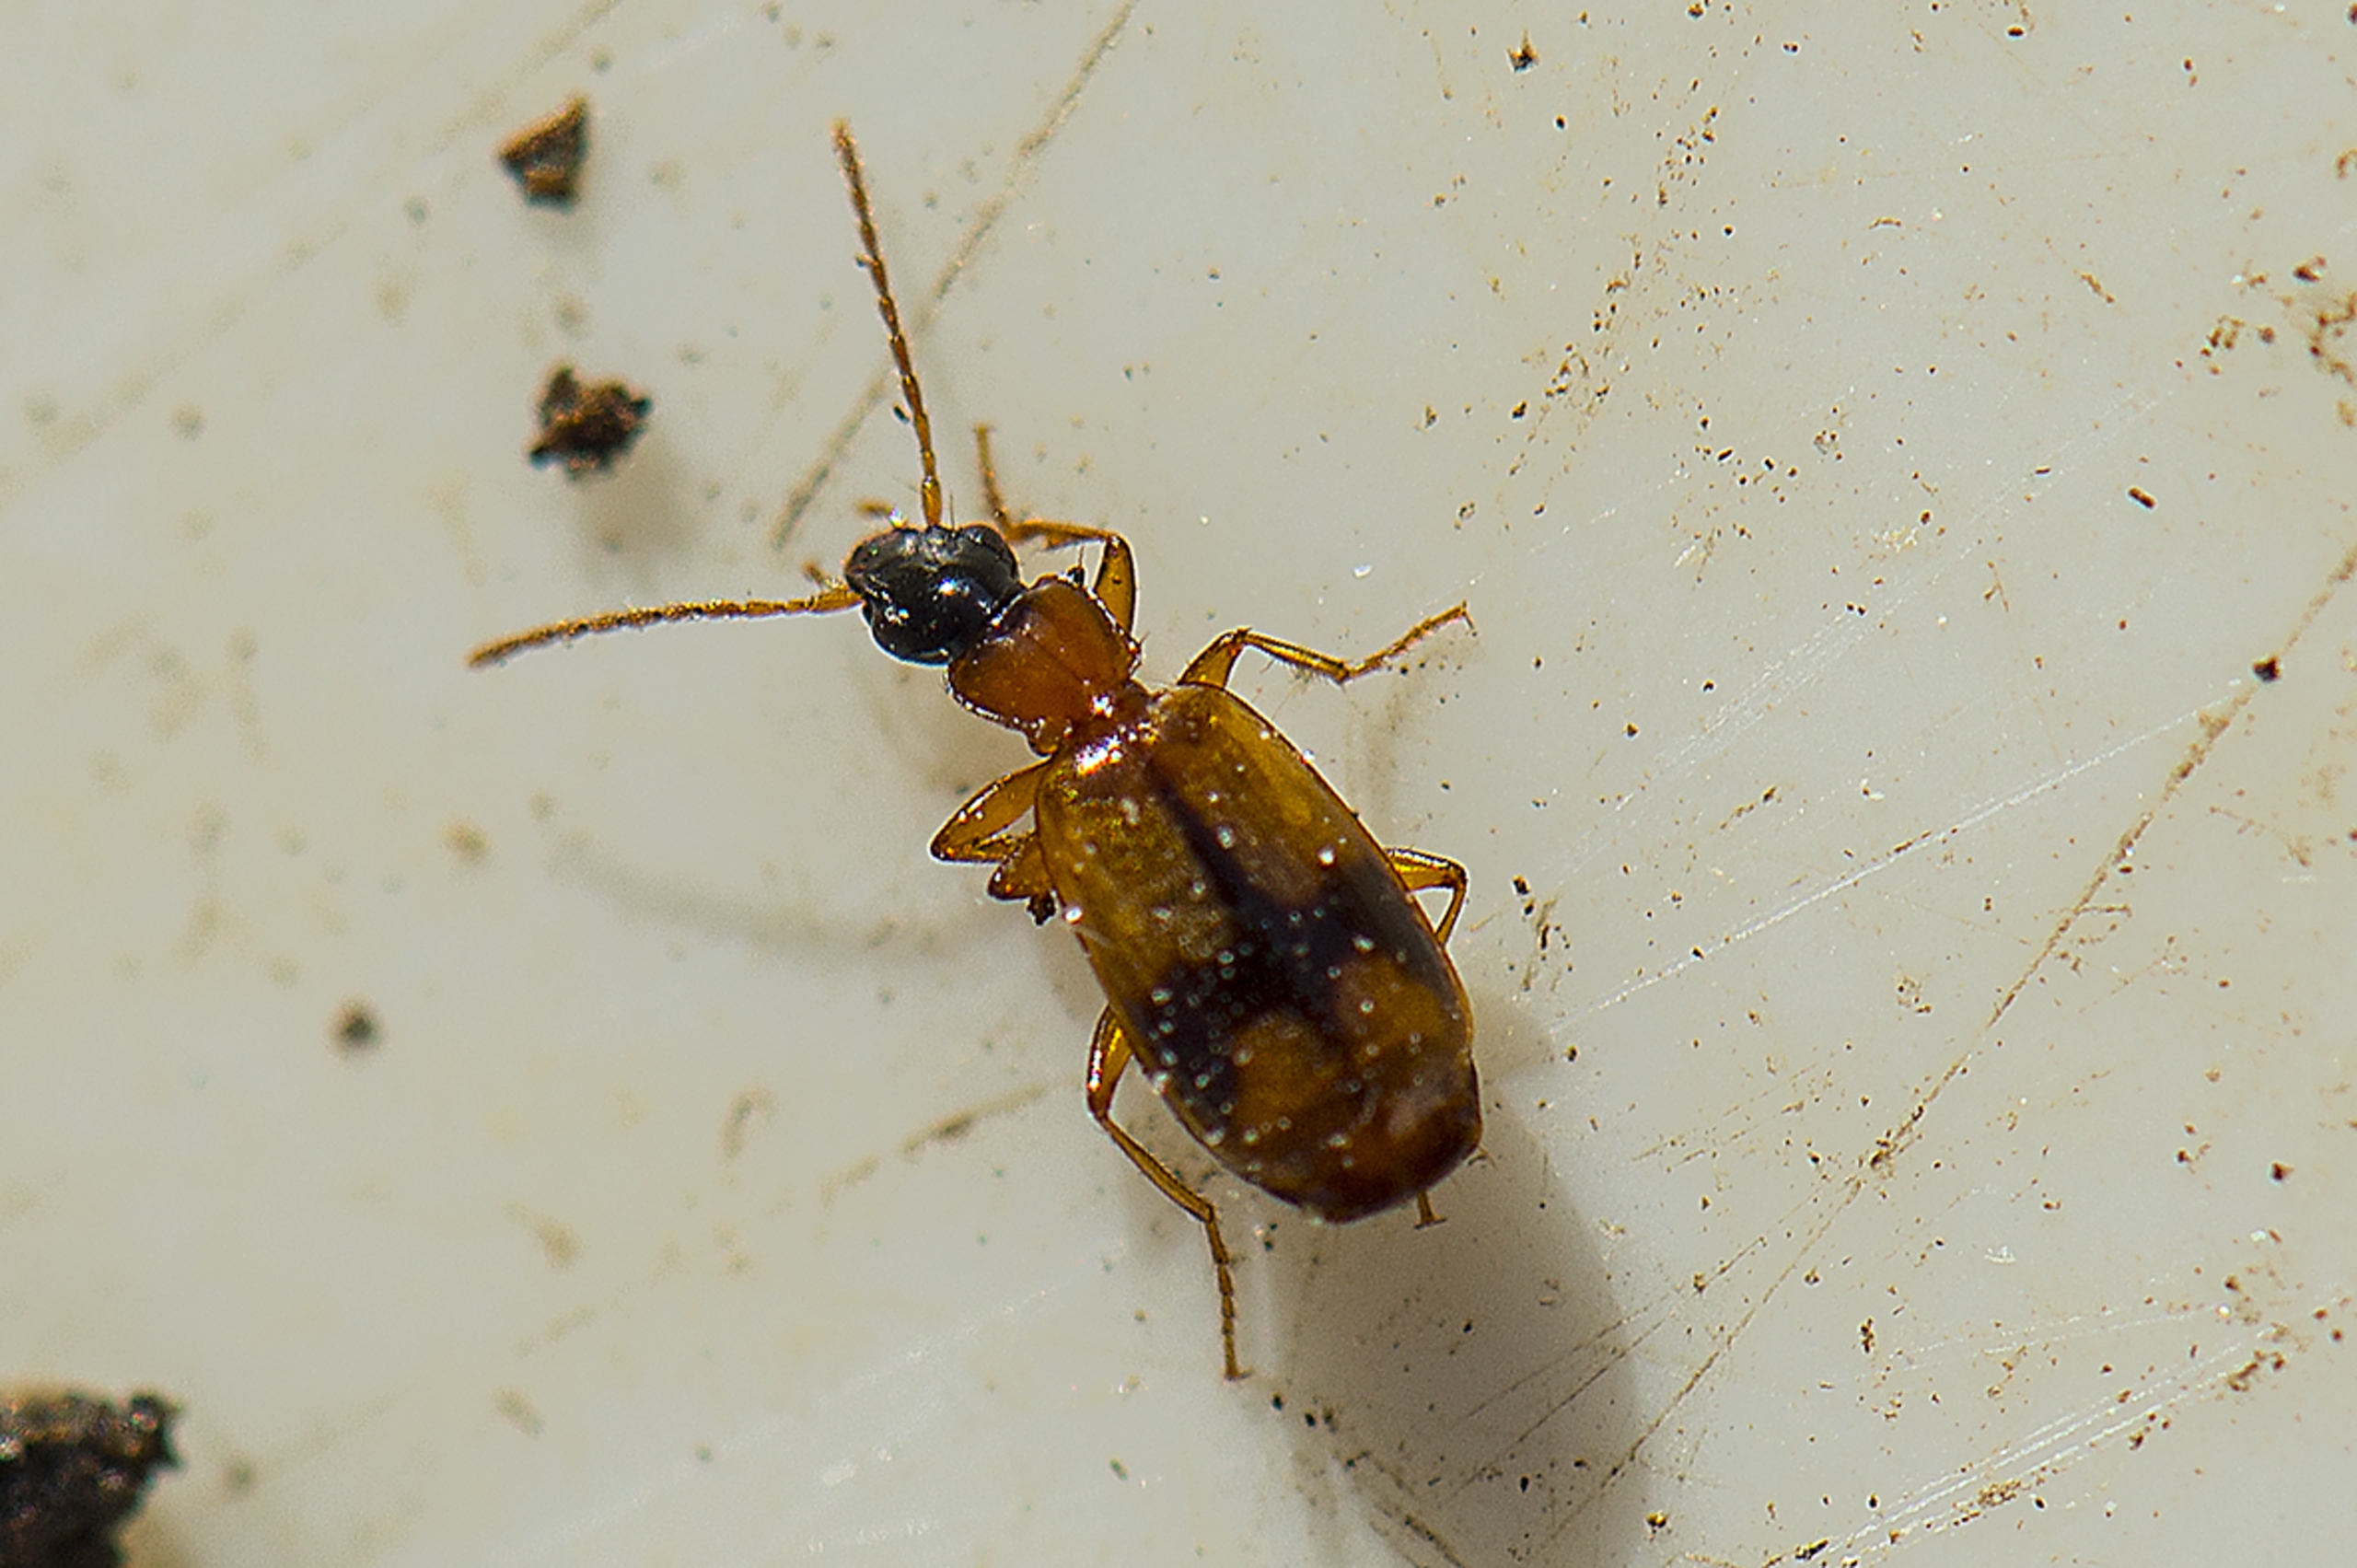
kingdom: Animalia
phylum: Arthropoda
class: Insecta
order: Coleoptera
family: Carabidae
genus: Philorhizus
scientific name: Philorhizus sigma
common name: Båndtegnet sivløber
